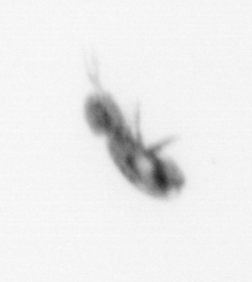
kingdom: Animalia
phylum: Arthropoda
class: Copepoda
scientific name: Copepoda
